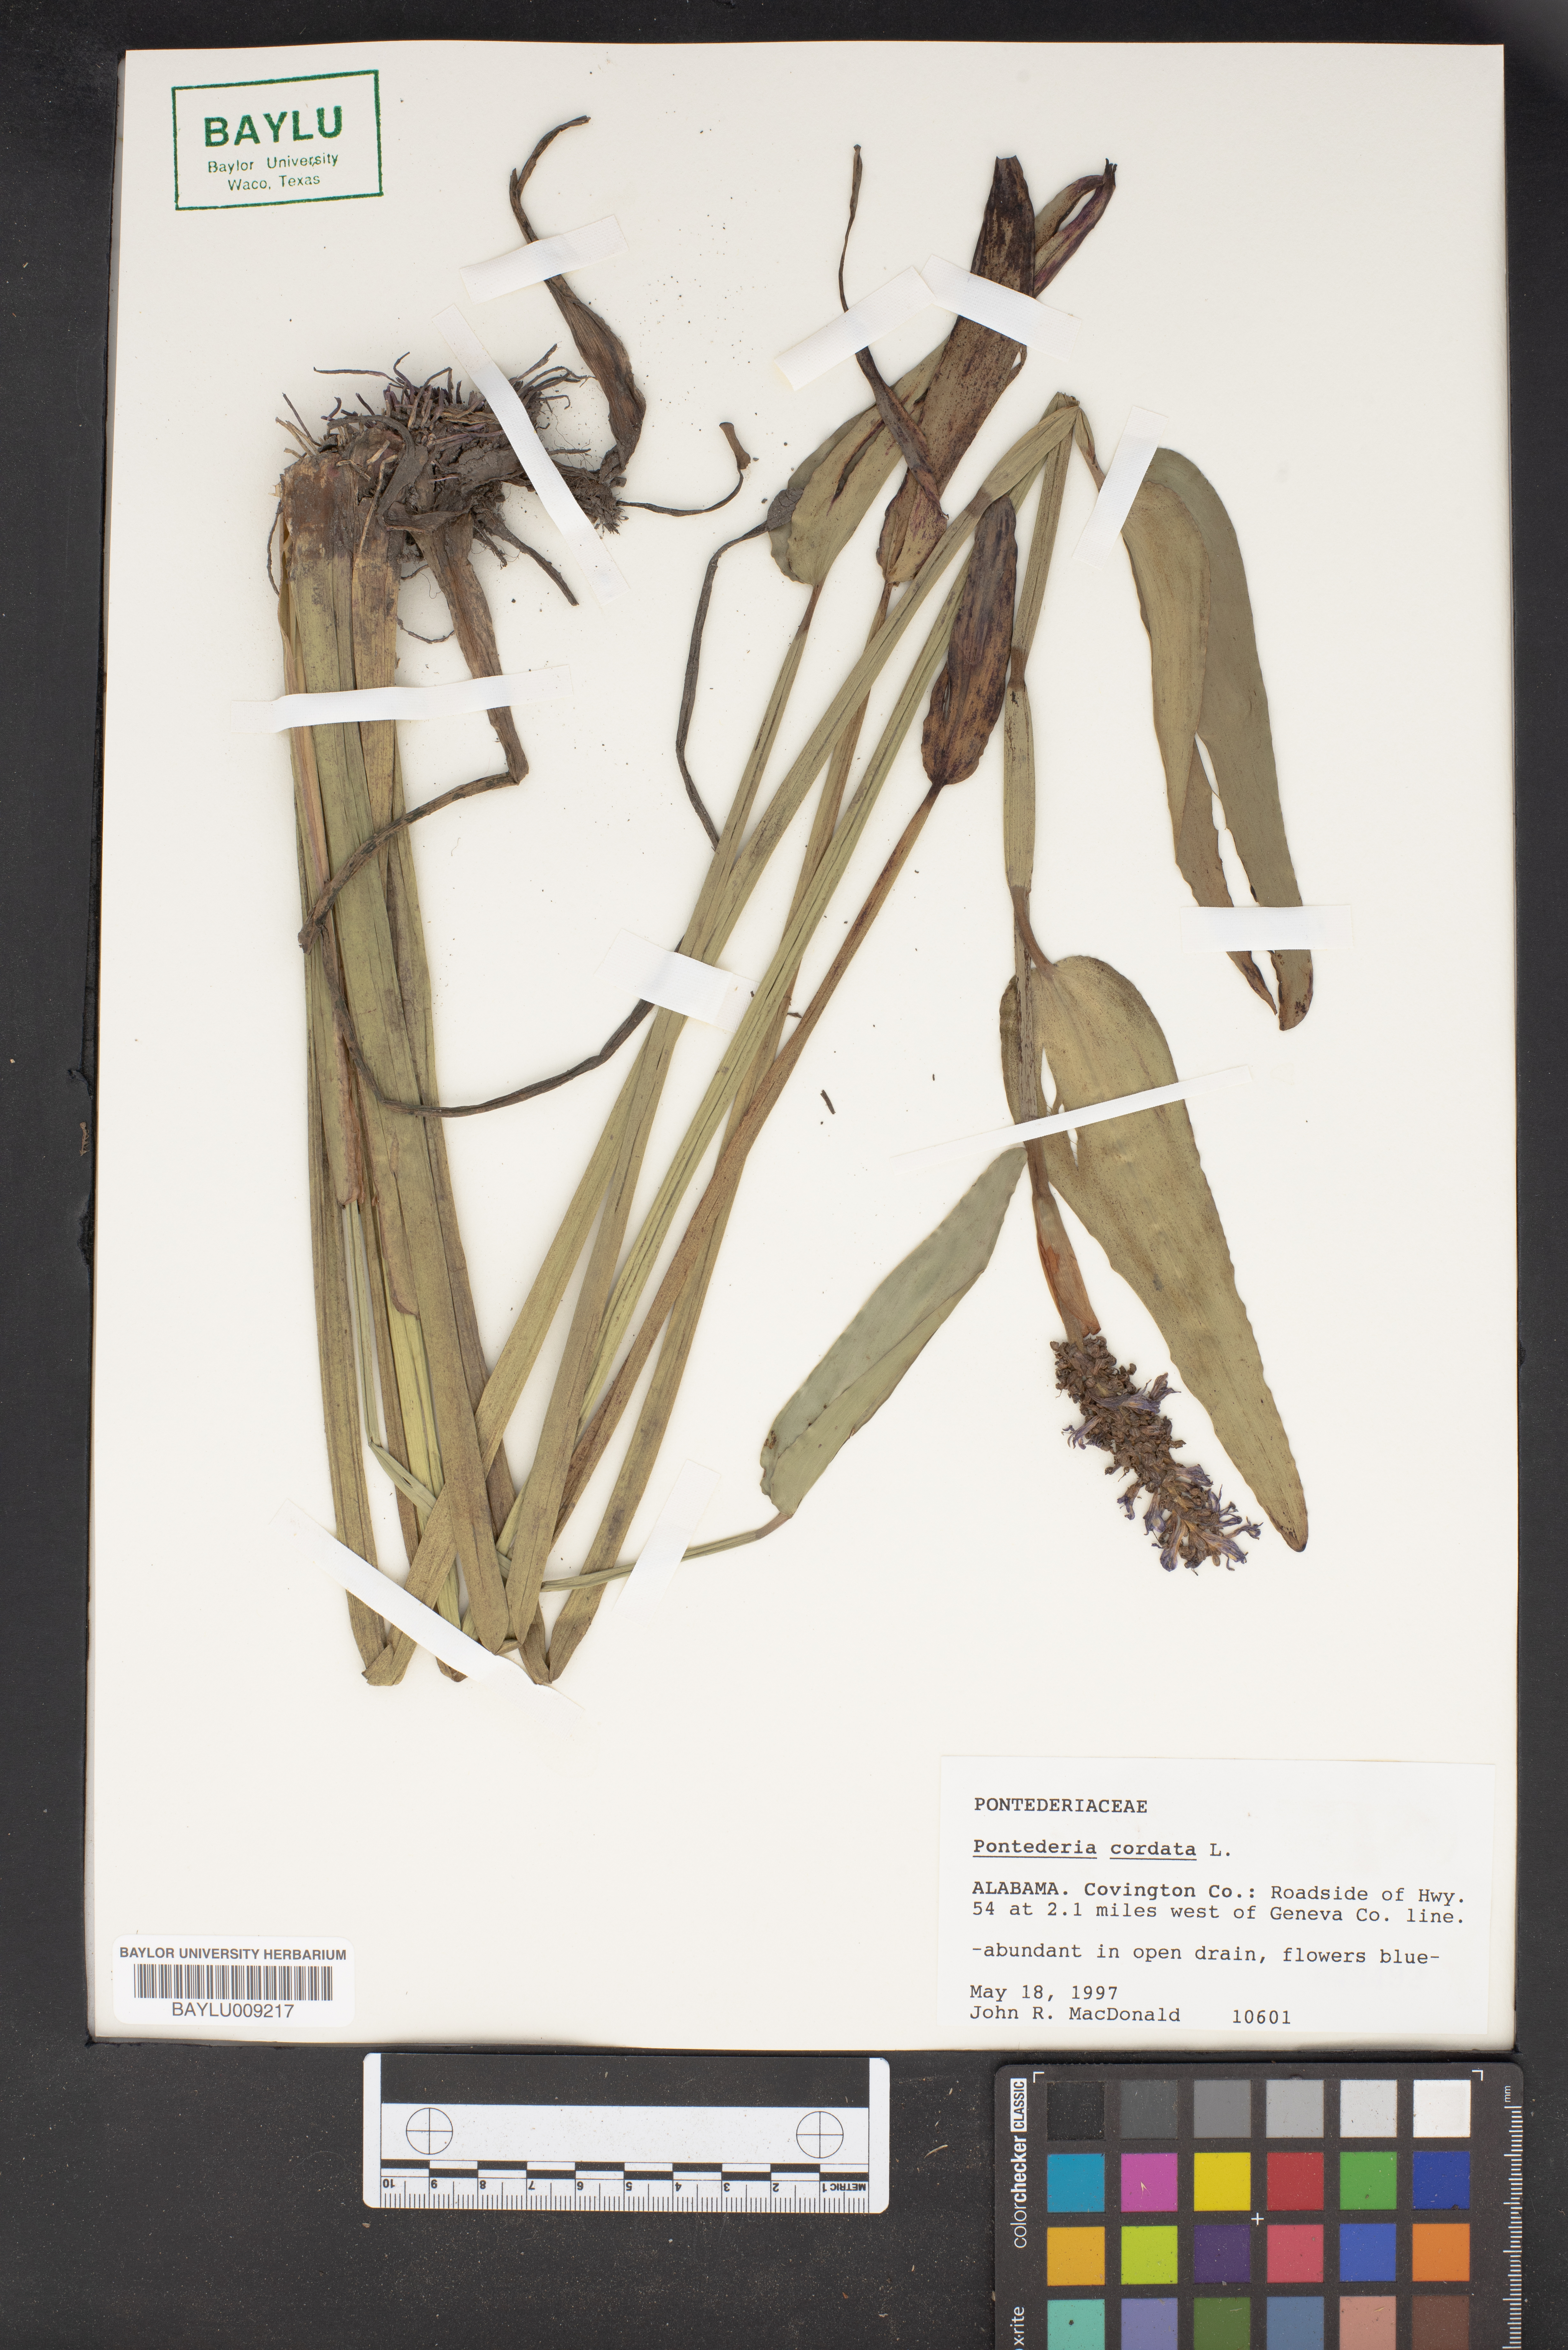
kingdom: Plantae
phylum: Tracheophyta
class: Liliopsida
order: Commelinales
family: Pontederiaceae
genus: Pontederia
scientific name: Pontederia cordata
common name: Pickerelweed
